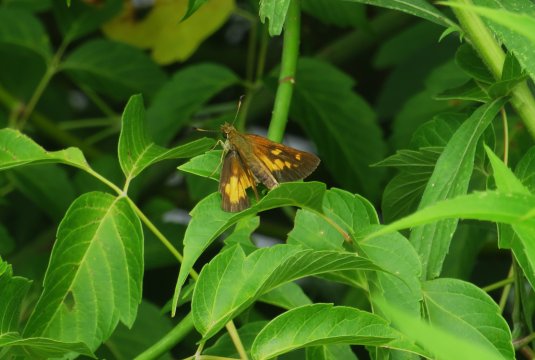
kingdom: Animalia
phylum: Arthropoda
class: Insecta
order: Lepidoptera
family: Hesperiidae
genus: Poanes
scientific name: Poanes viator
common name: Broad-winged Skipper
